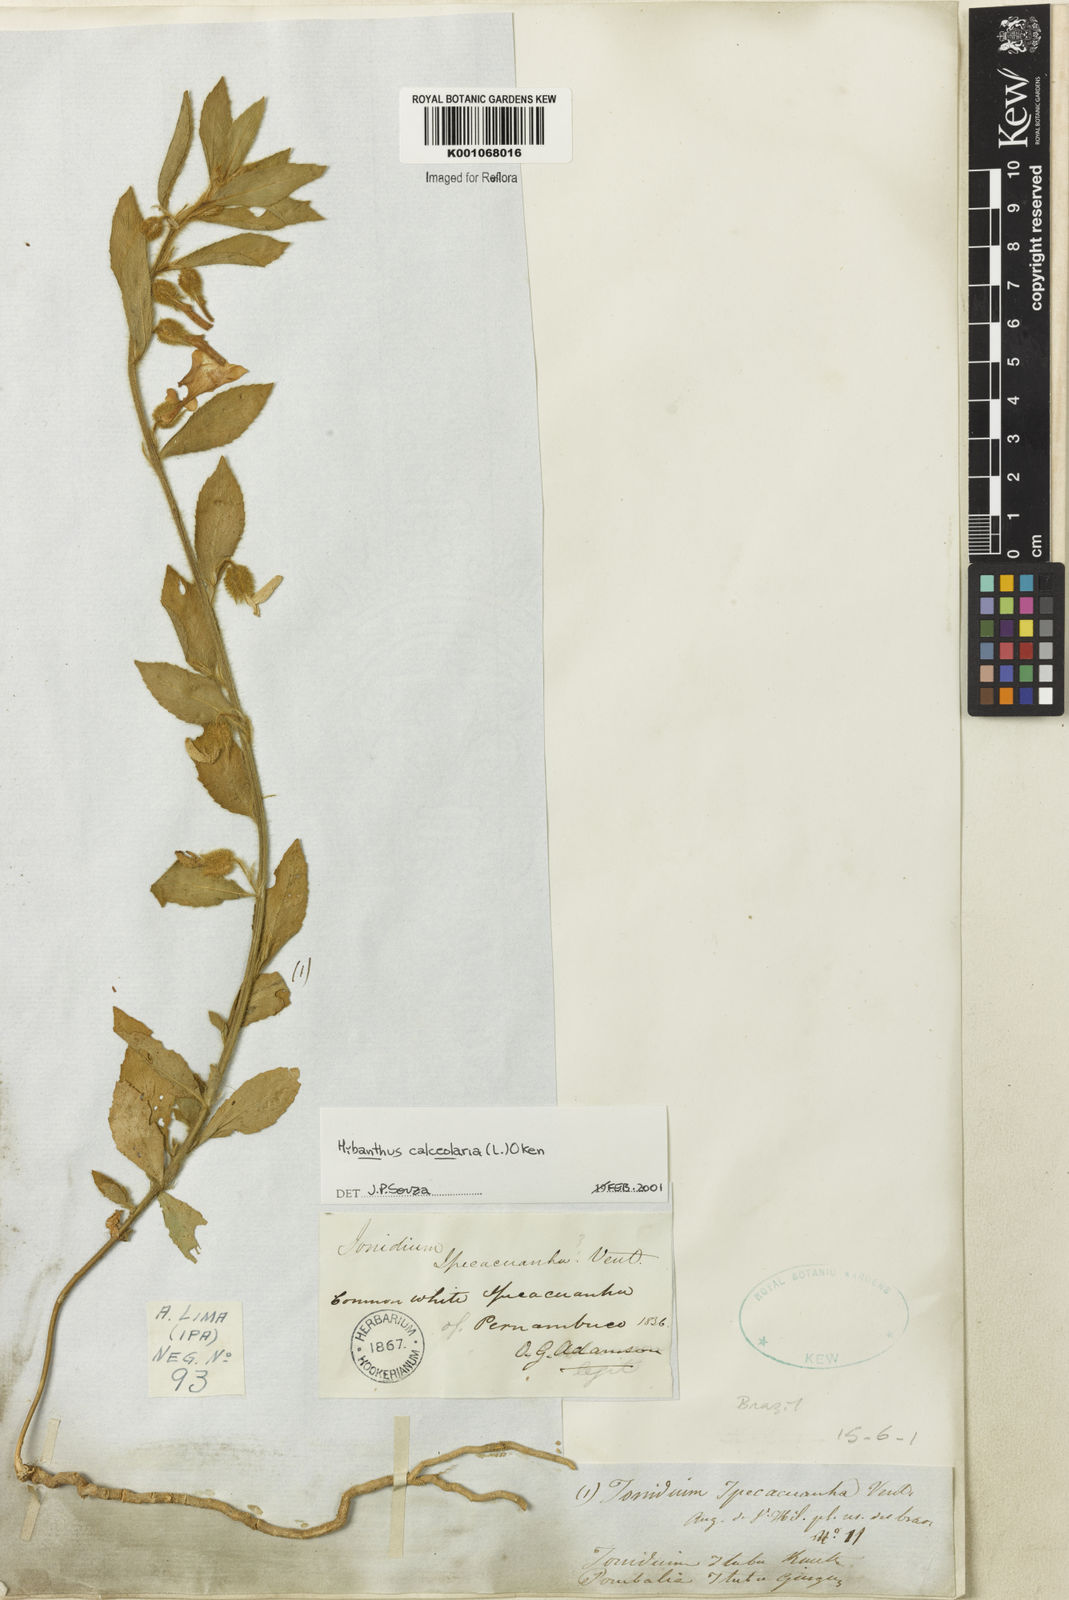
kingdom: Plantae
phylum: Tracheophyta
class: Magnoliopsida
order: Malpighiales
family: Violaceae
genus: Hybanthus
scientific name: Hybanthus
